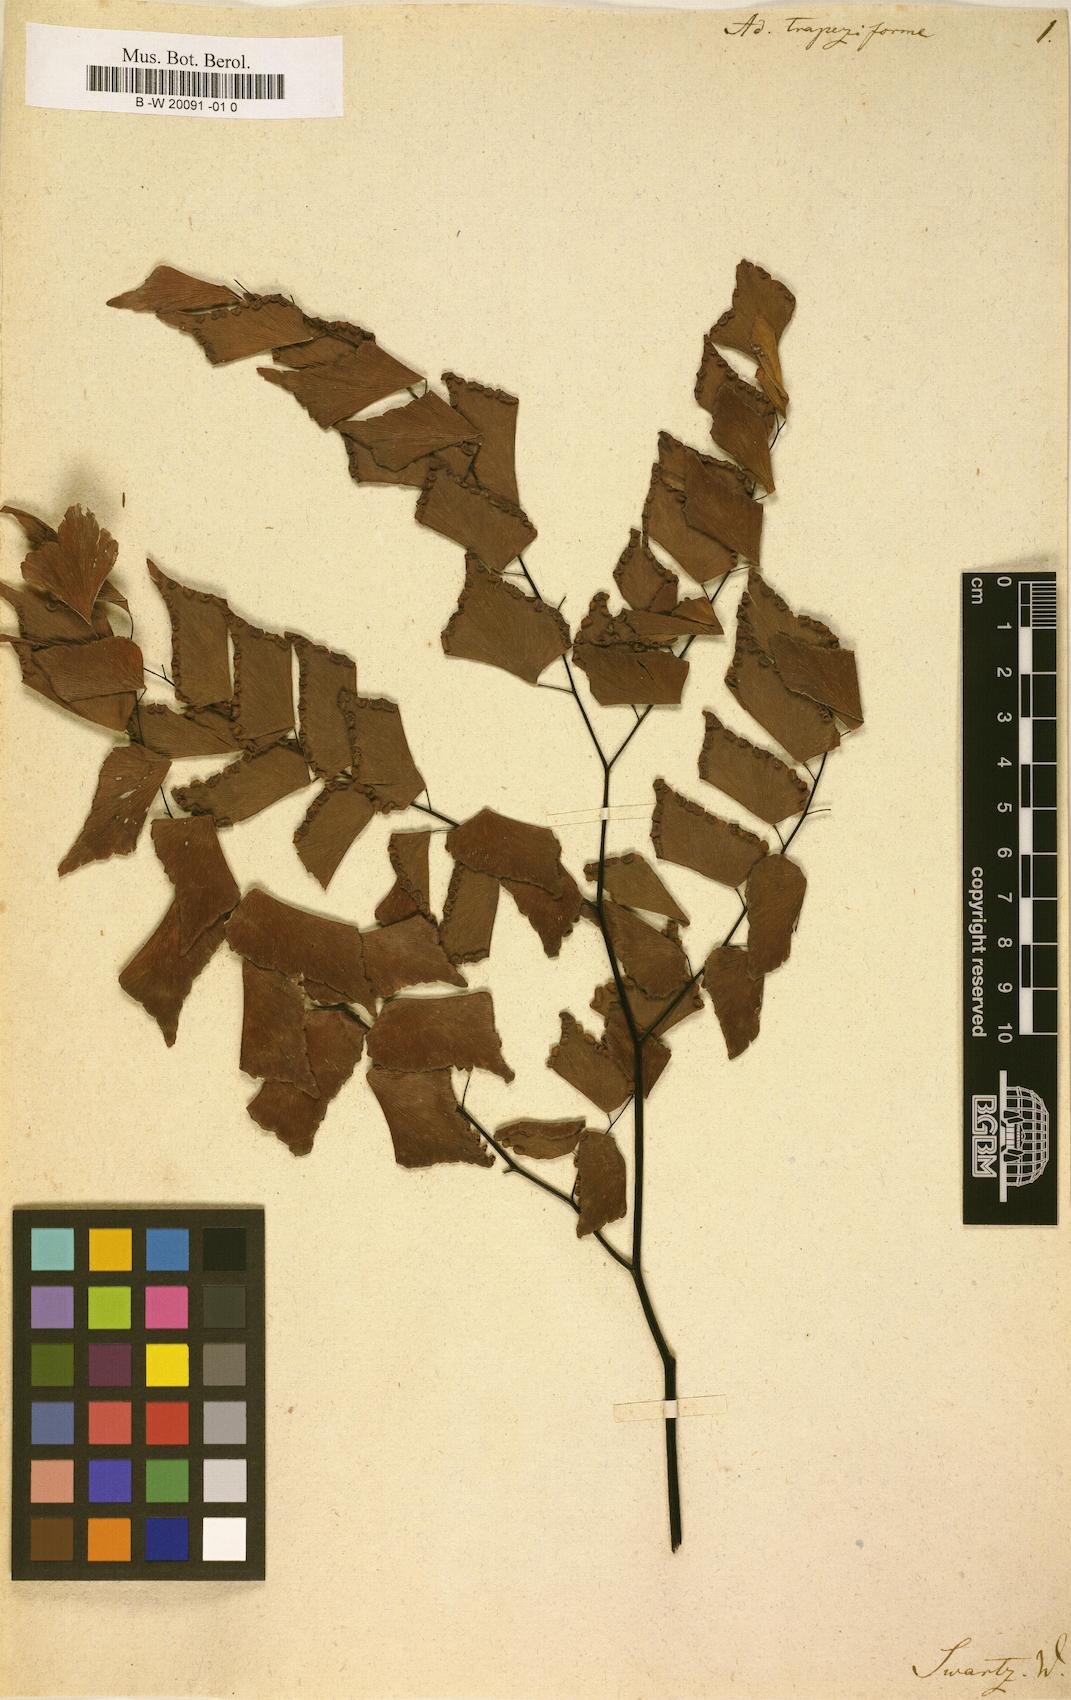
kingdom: Plantae
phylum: Tracheophyta
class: Polypodiopsida
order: Polypodiales
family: Pteridaceae
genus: Adiantum
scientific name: Adiantum trapeziforme
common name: Diamond maidenhair
